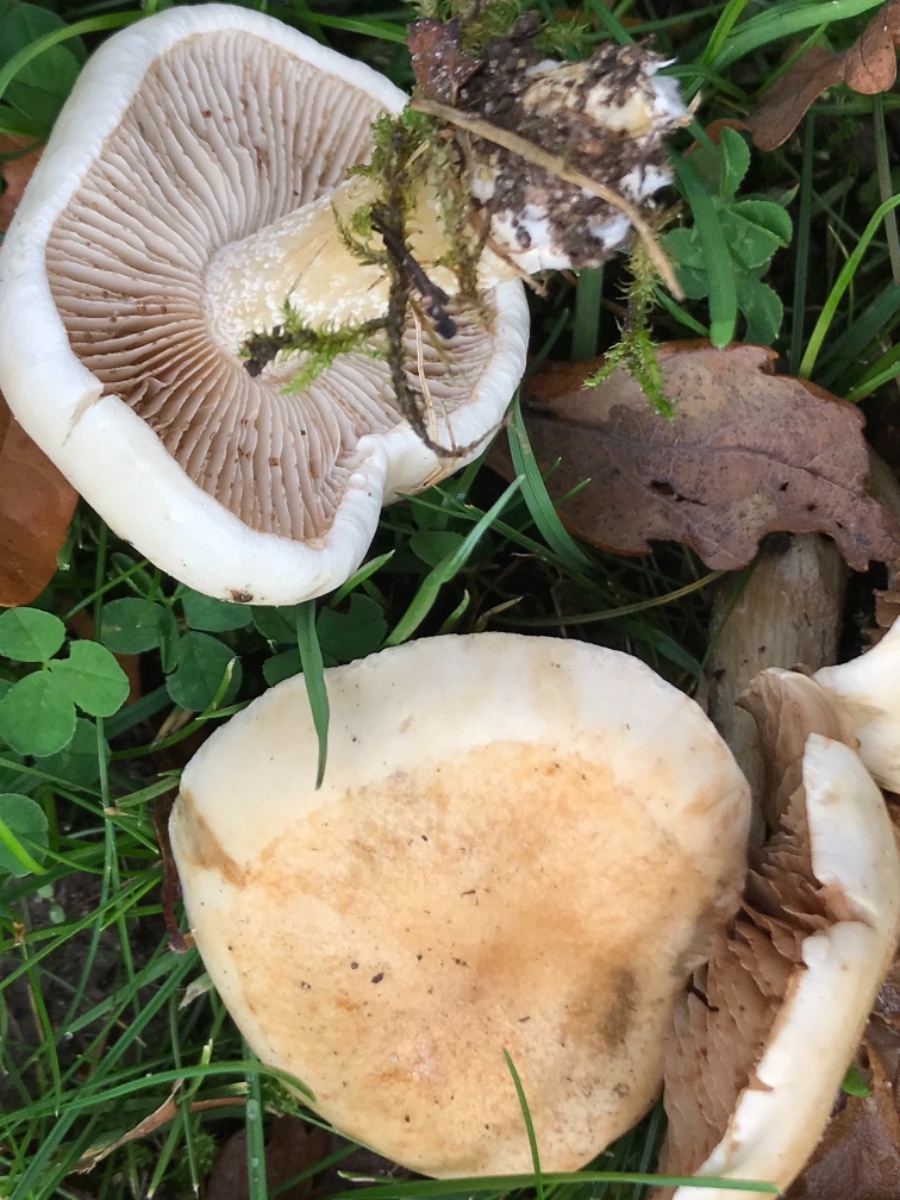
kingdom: Fungi
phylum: Basidiomycota
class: Agaricomycetes
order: Agaricales
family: Hymenogastraceae
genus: Hebeloma
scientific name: Hebeloma
